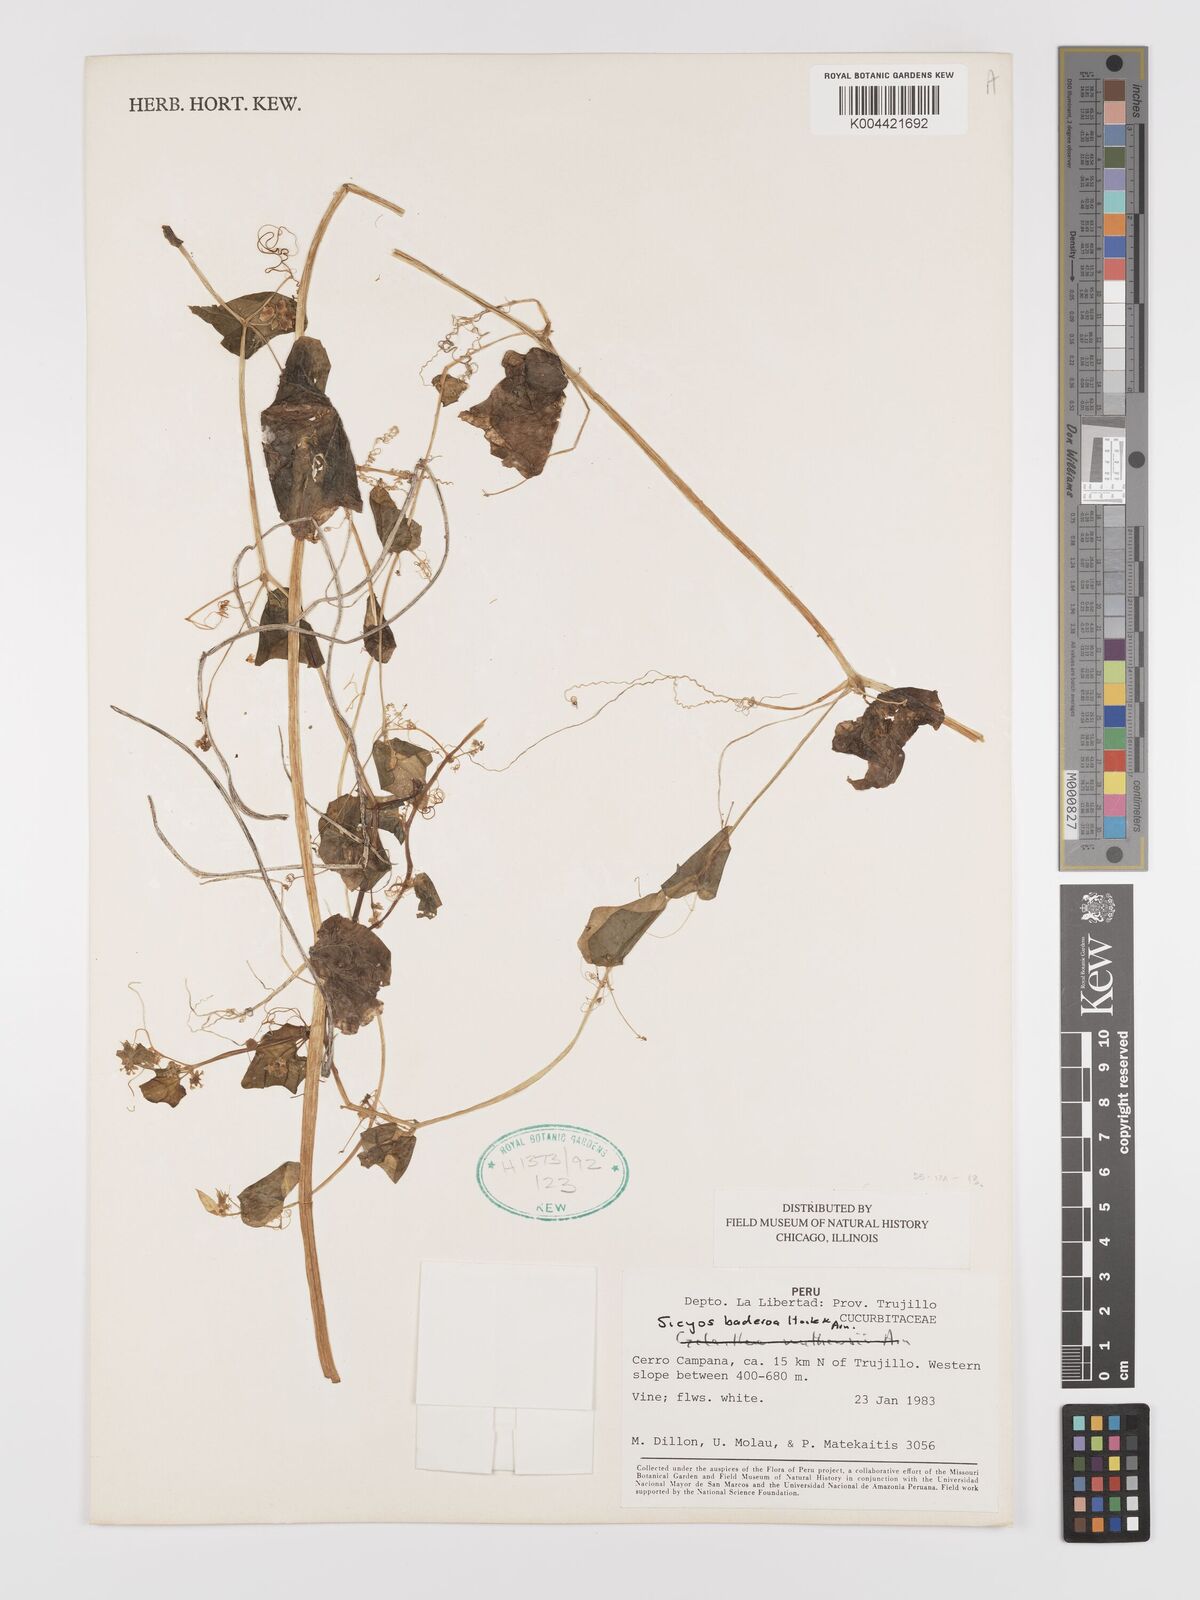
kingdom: Plantae
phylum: Tracheophyta
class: Magnoliopsida
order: Cucurbitales
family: Cucurbitaceae
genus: Sicyos
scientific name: Sicyos baderoa
